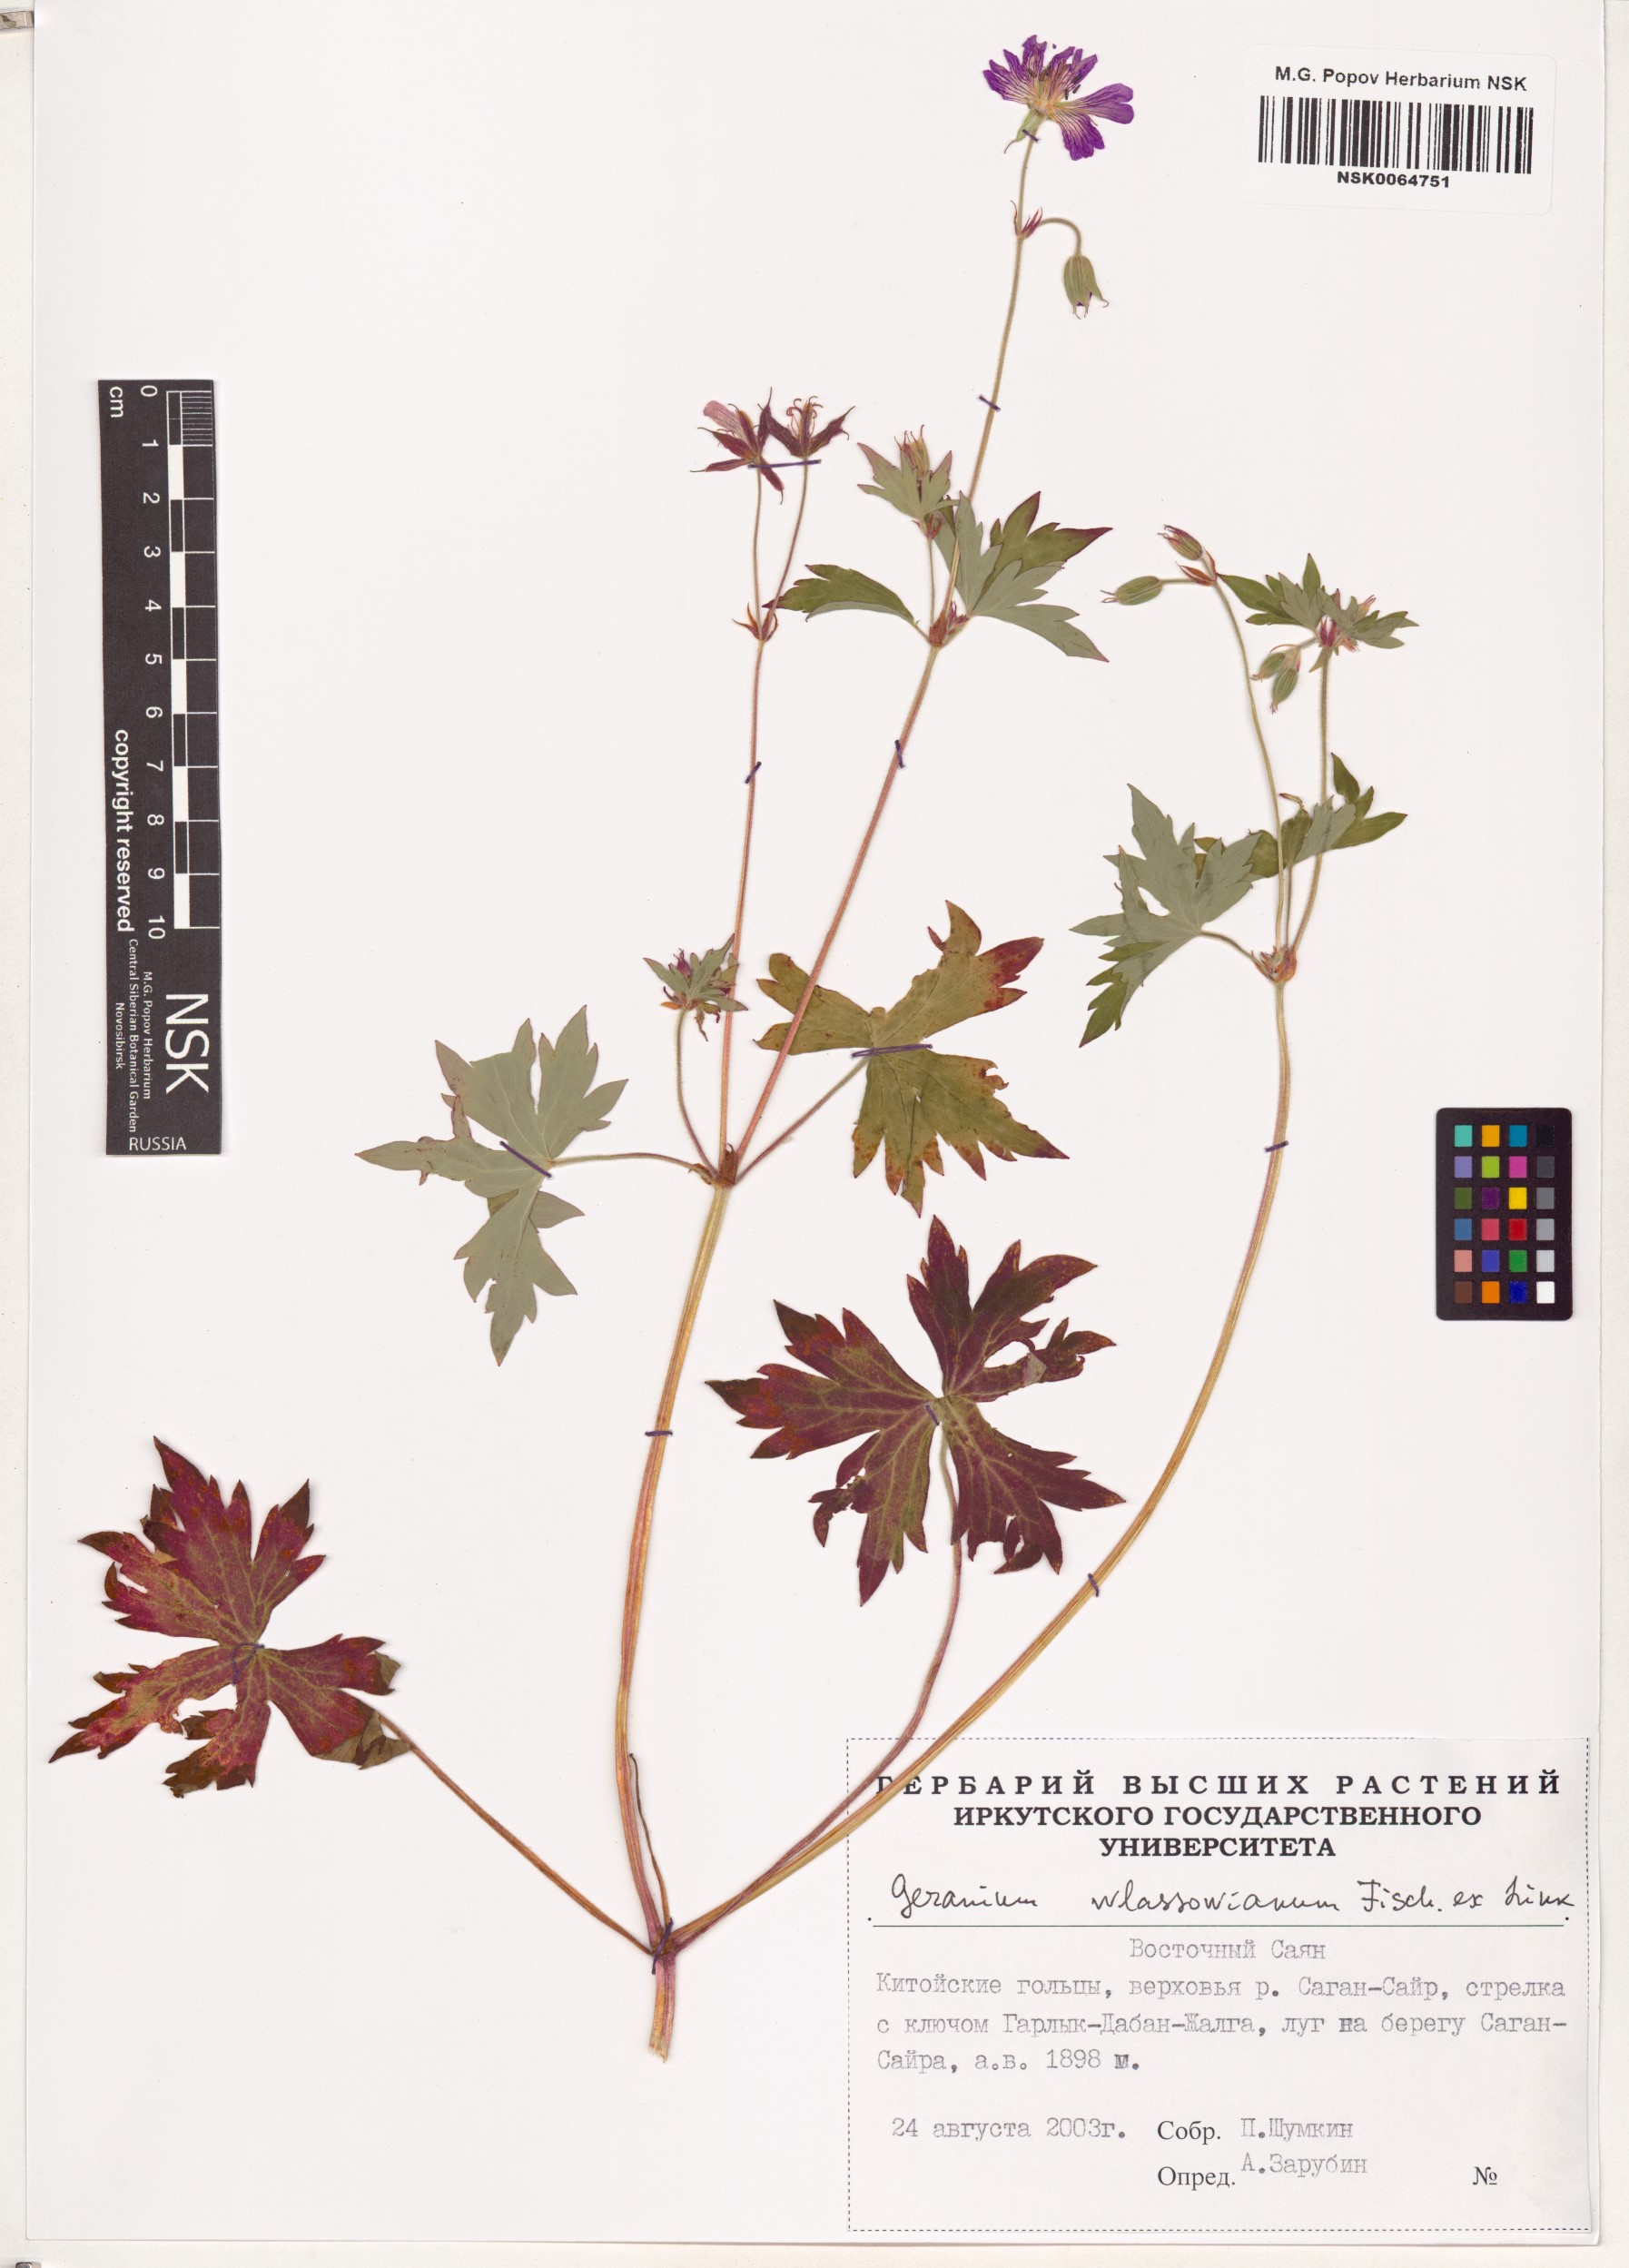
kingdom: Plantae
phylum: Tracheophyta
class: Magnoliopsida
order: Geraniales
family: Geraniaceae
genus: Geranium
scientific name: Geranium wlassovianum
